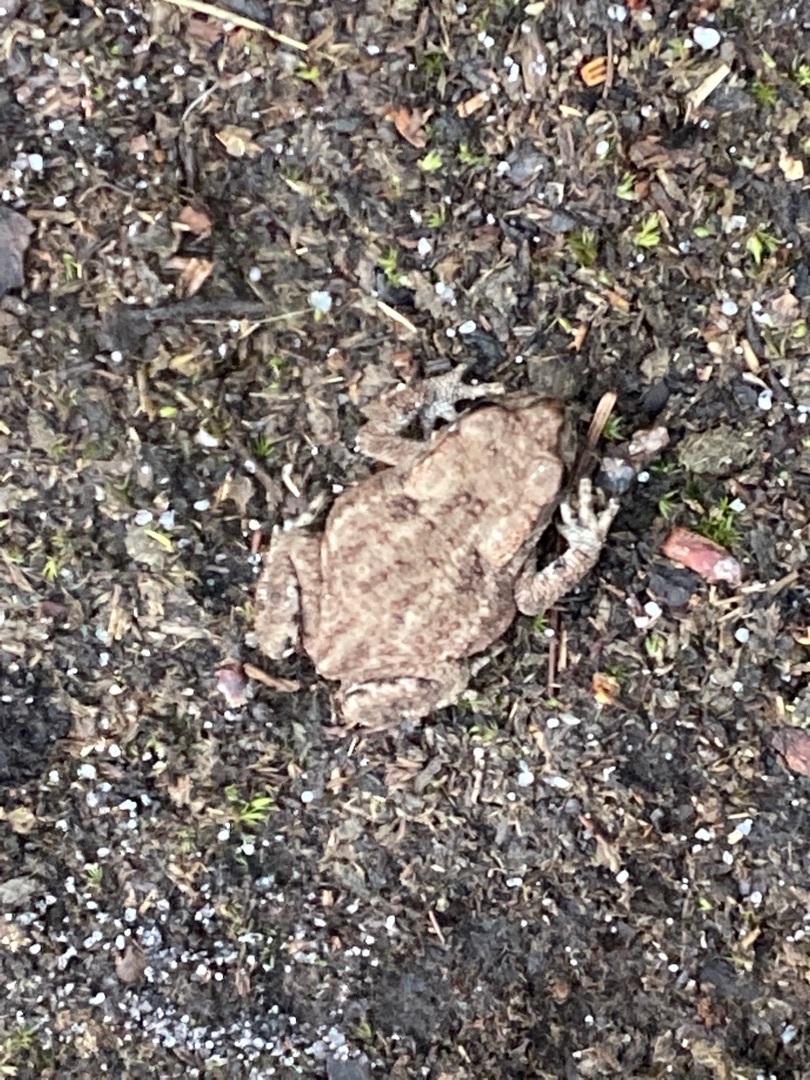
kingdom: Animalia
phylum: Chordata
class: Amphibia
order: Anura
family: Bufonidae
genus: Bufo
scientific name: Bufo bufo
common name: Skrubtudse
